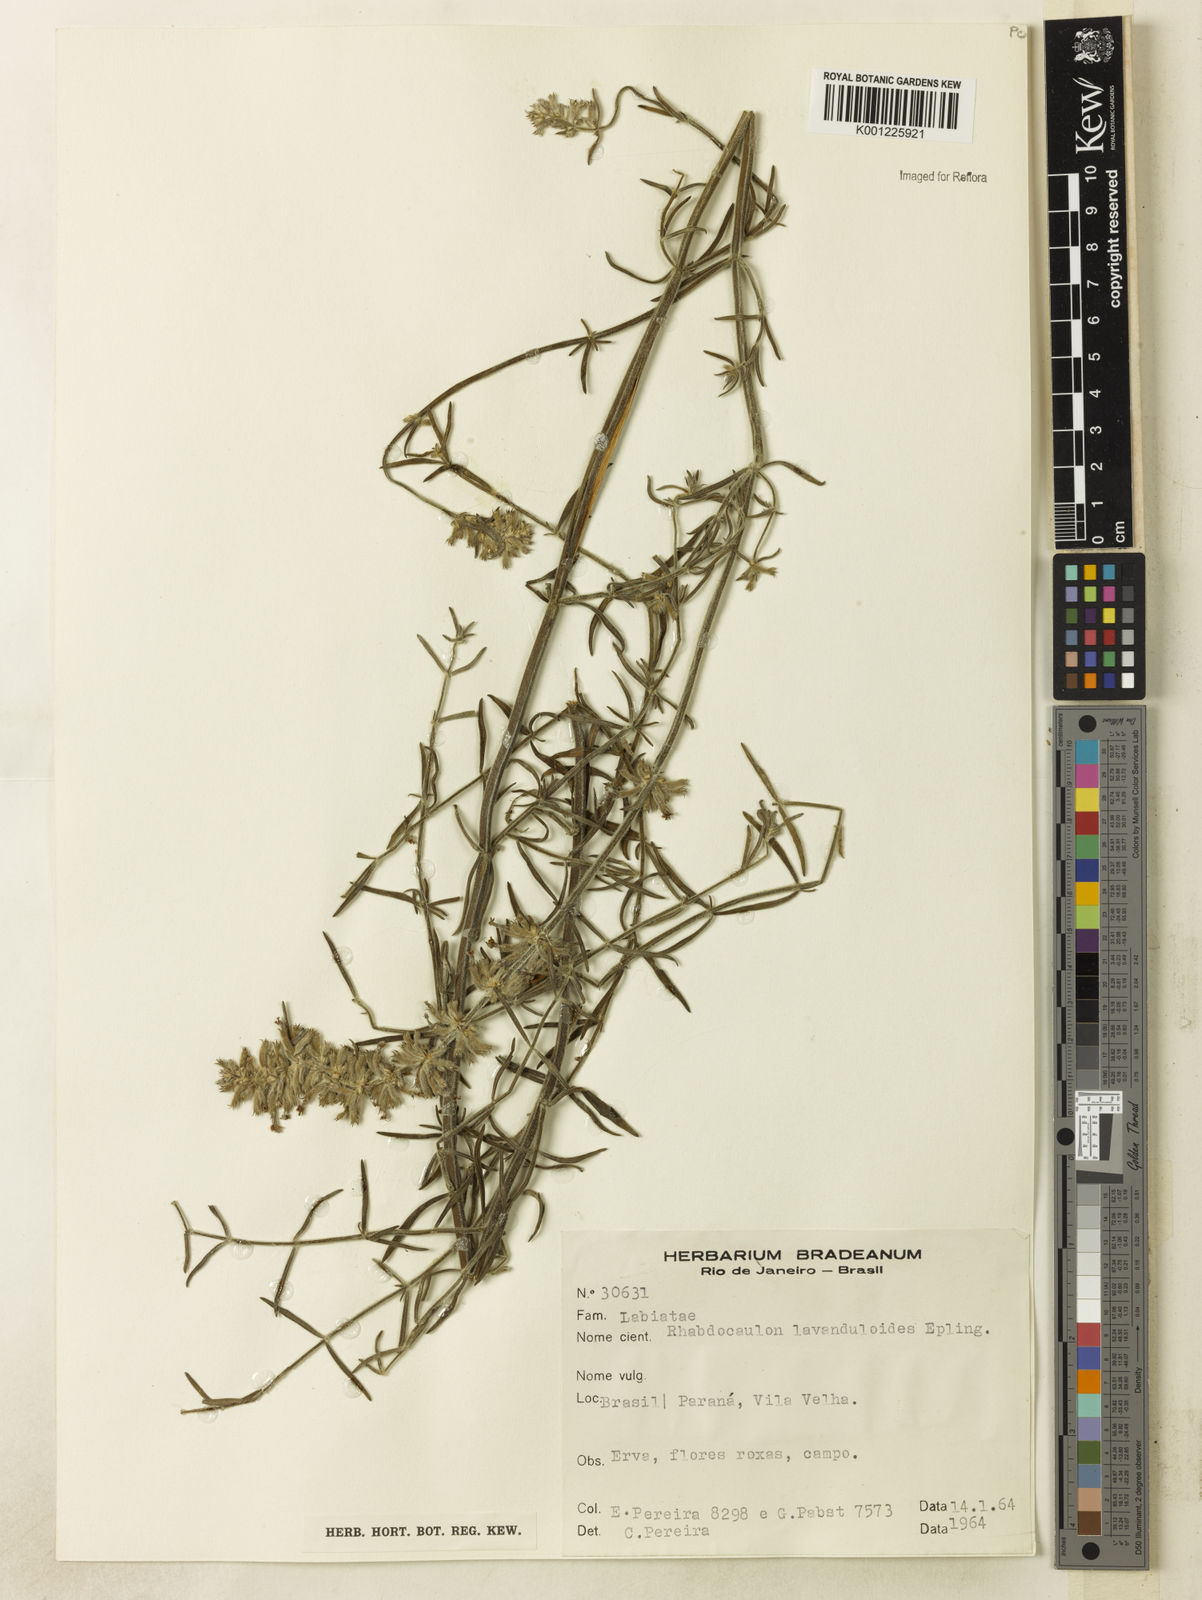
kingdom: Plantae
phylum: Tracheophyta
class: Magnoliopsida
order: Lamiales
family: Lamiaceae
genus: Rhabdocaulon
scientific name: Rhabdocaulon lavanduloides
